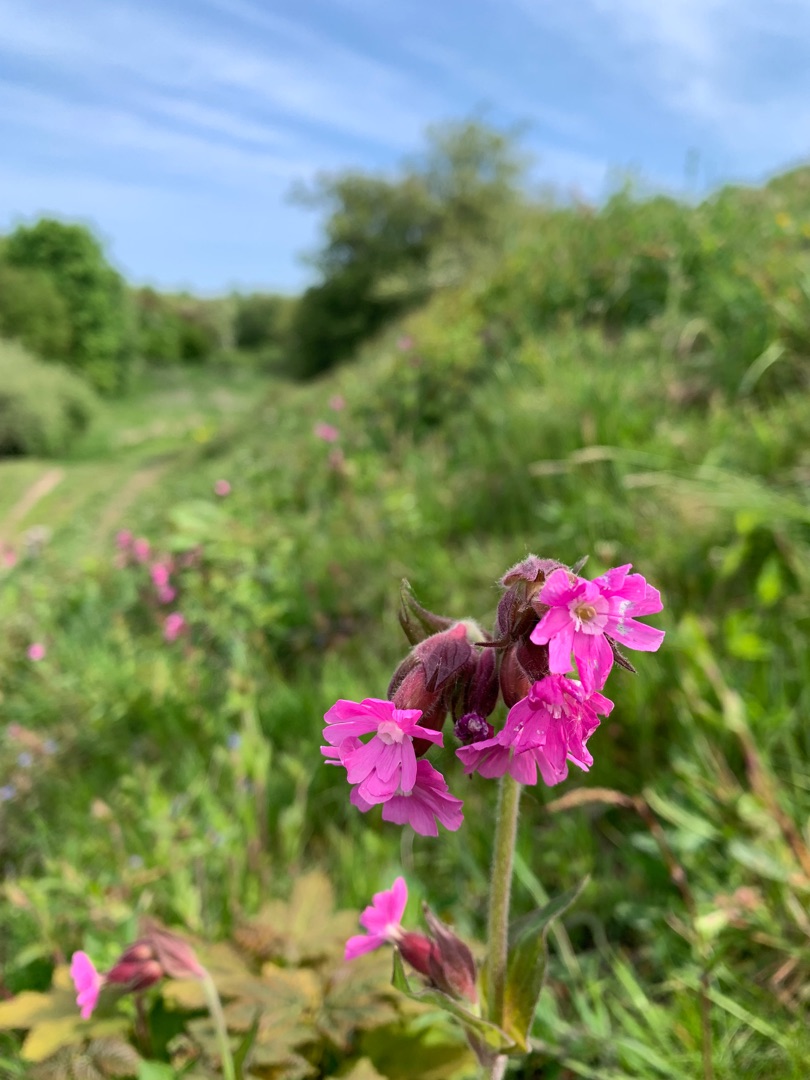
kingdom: Plantae
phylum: Tracheophyta
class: Magnoliopsida
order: Caryophyllales
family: Caryophyllaceae
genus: Silene
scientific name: Silene dioica
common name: Dagpragtstjerne
